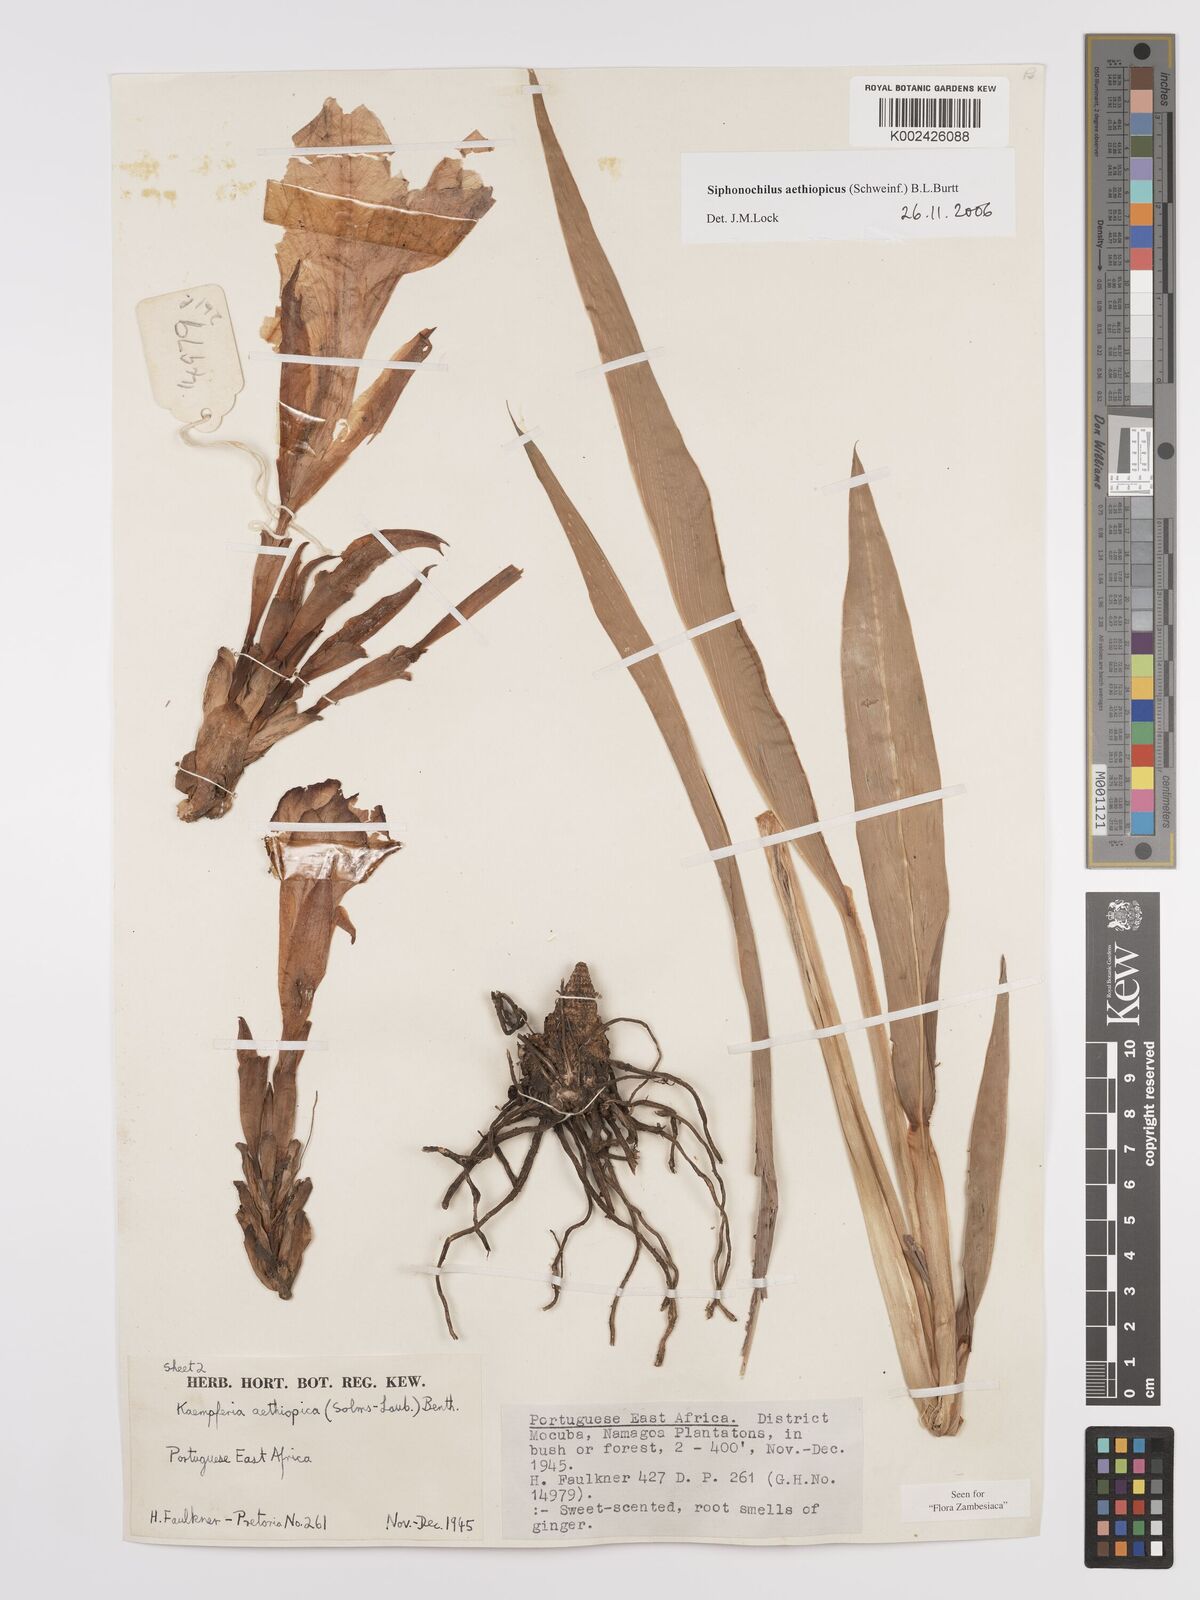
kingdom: Plantae
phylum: Tracheophyta
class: Liliopsida
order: Zingiberales
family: Zingiberaceae
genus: Siphonochilus
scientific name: Siphonochilus aethiopicus
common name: African-ginger
